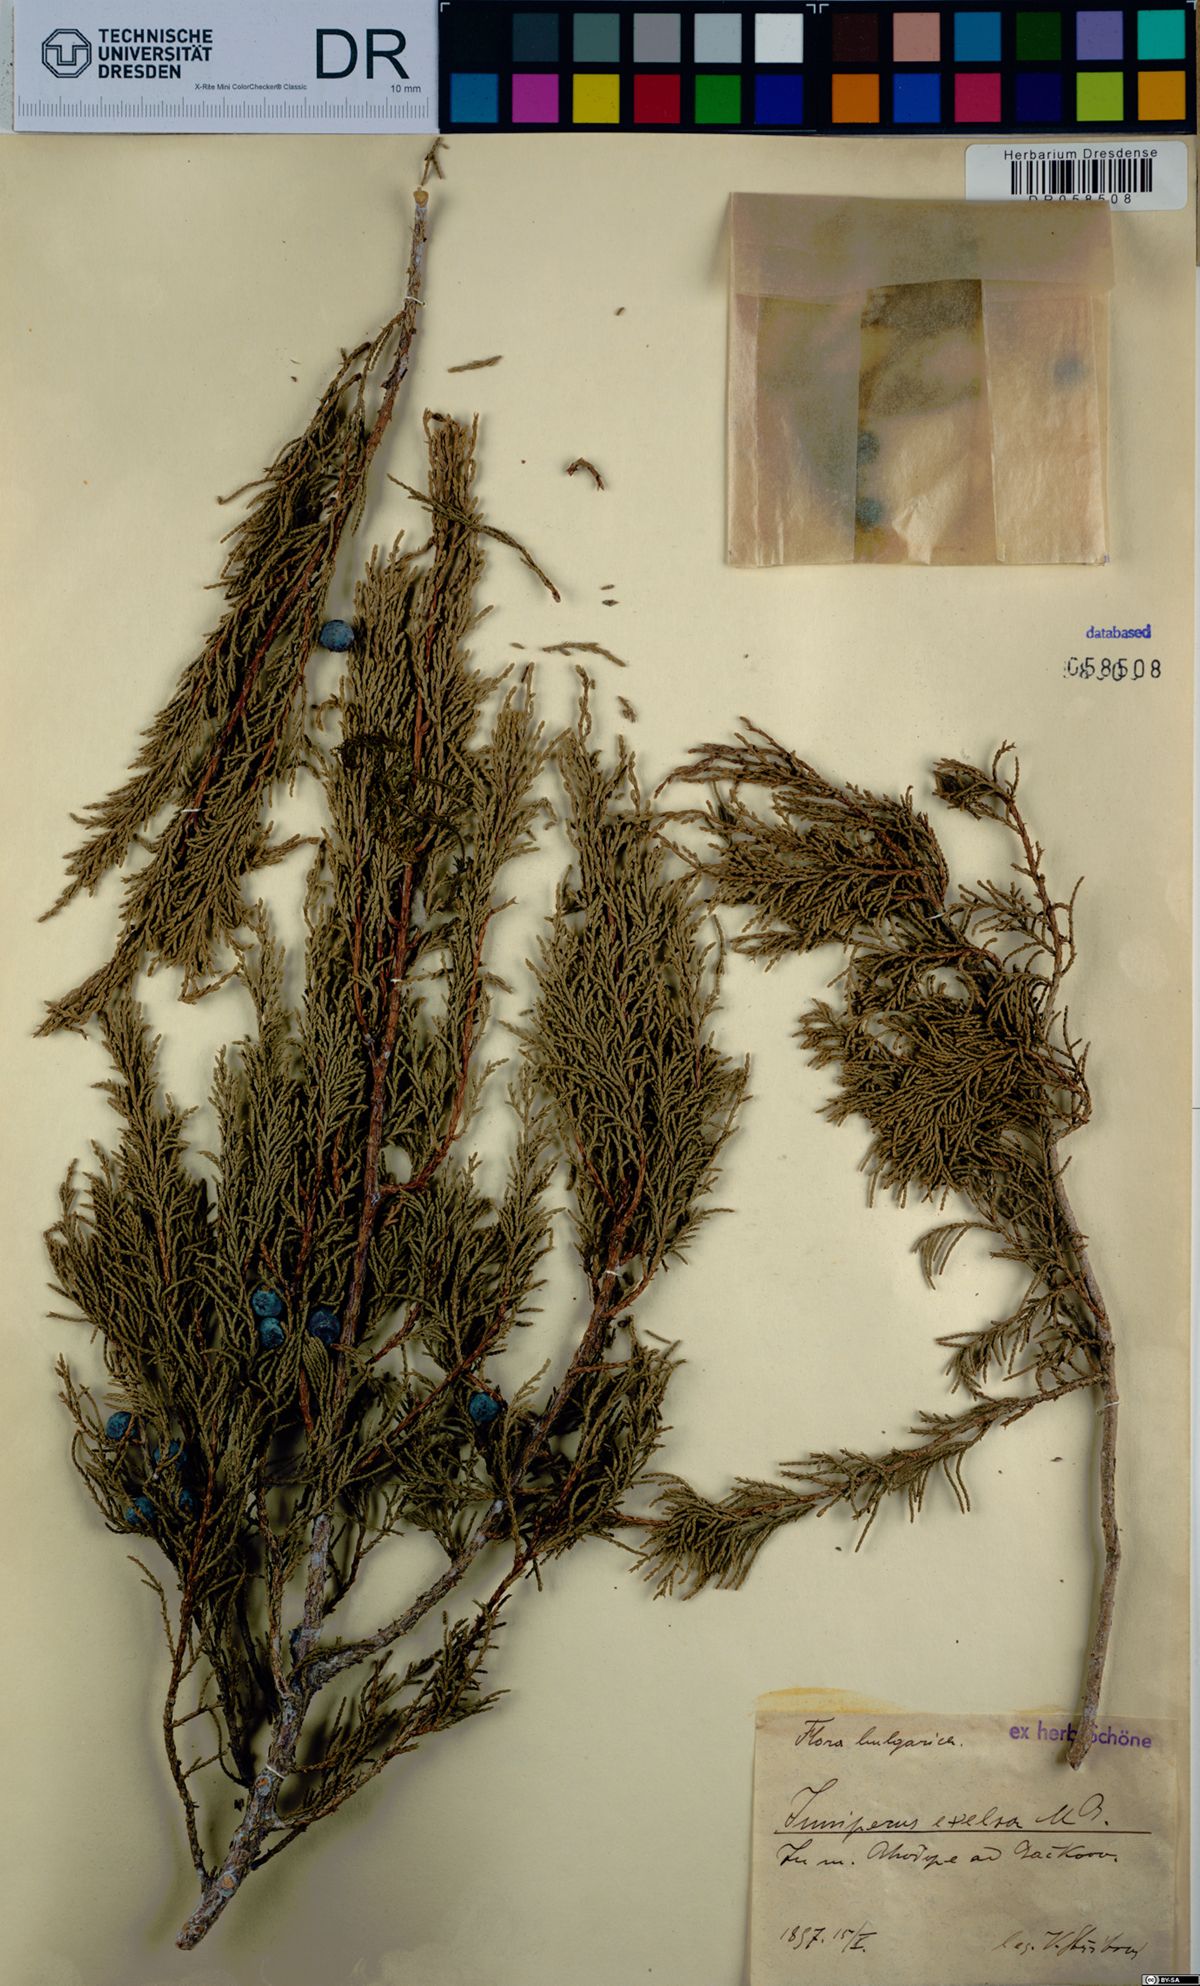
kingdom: Plantae
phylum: Tracheophyta
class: Pinopsida
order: Pinales
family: Cupressaceae
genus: Juniperus
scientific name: Juniperus excelsa
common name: Crimean juniper
